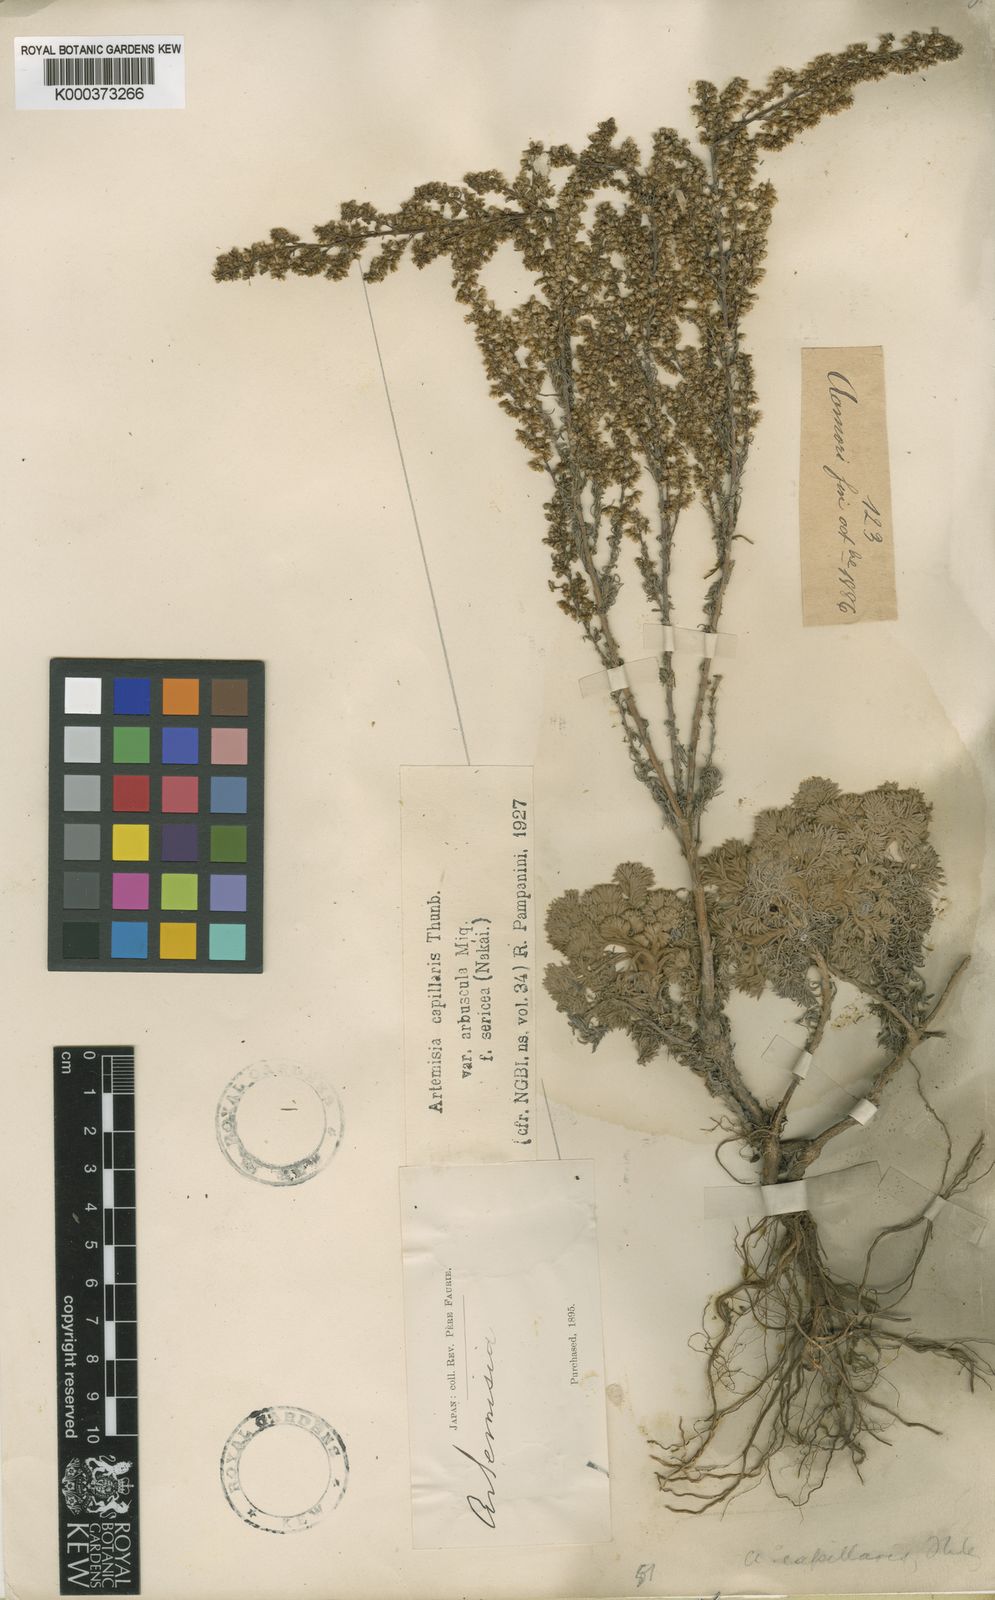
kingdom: Plantae
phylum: Tracheophyta
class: Magnoliopsida
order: Asterales
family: Asteraceae
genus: Artemisia
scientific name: Artemisia capillaris
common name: Yin-chen wormwood
